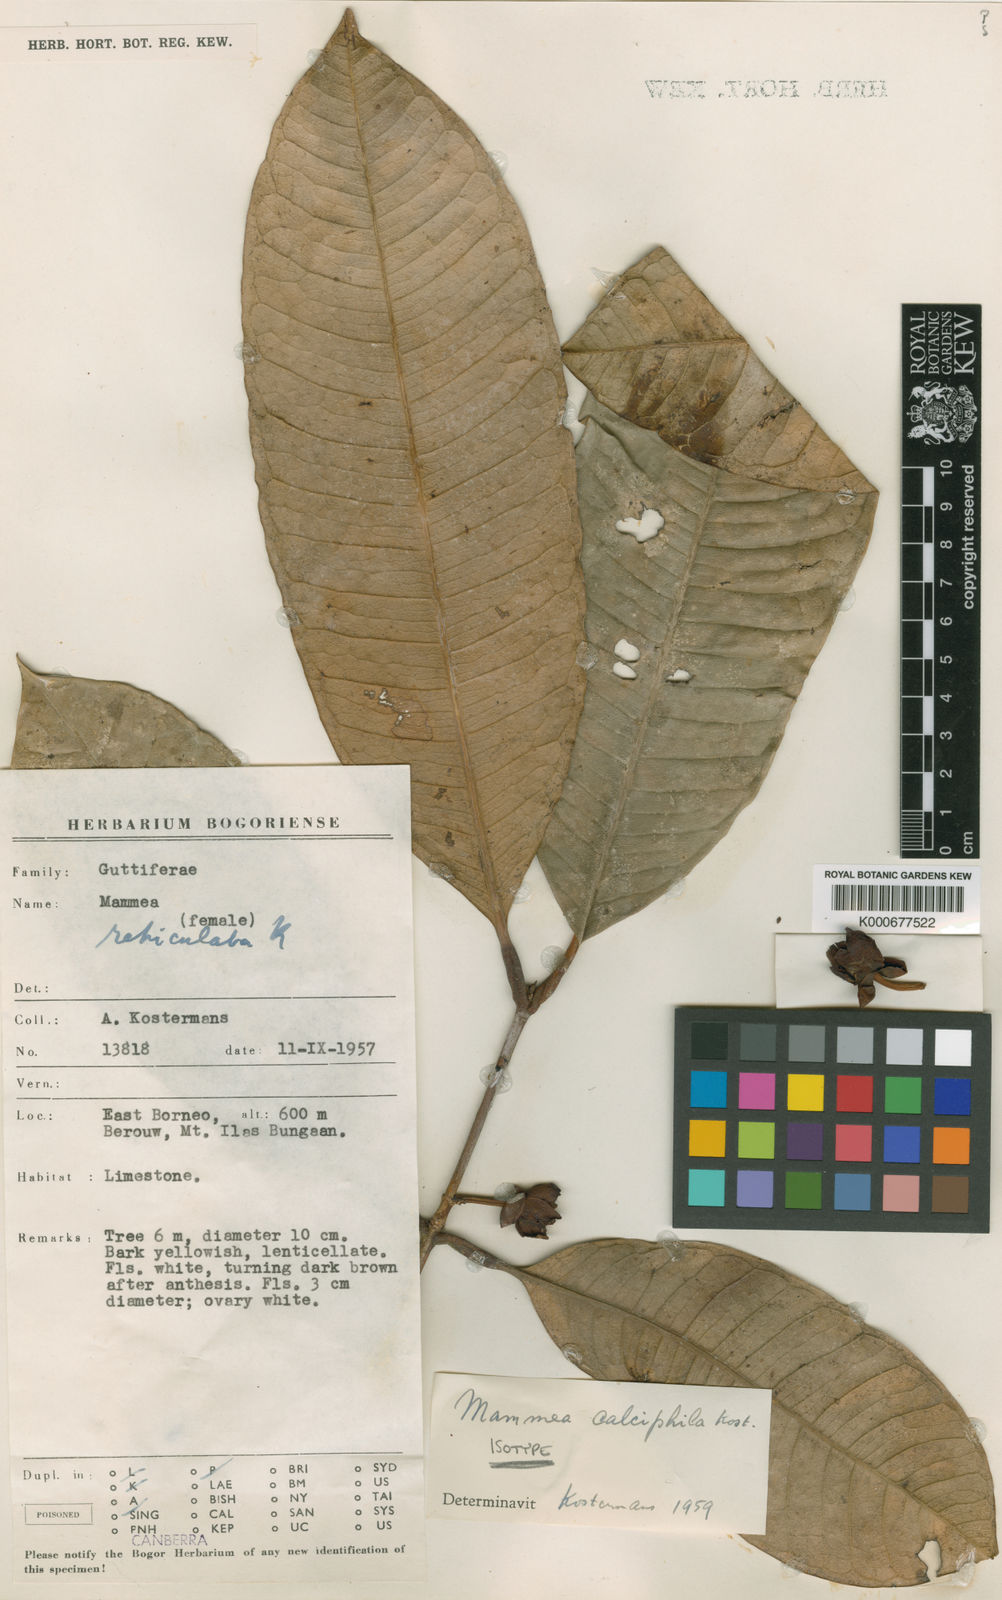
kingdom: Plantae
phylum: Tracheophyta
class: Magnoliopsida
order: Malpighiales
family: Calophyllaceae
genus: Mammea
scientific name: Mammea calciphila
